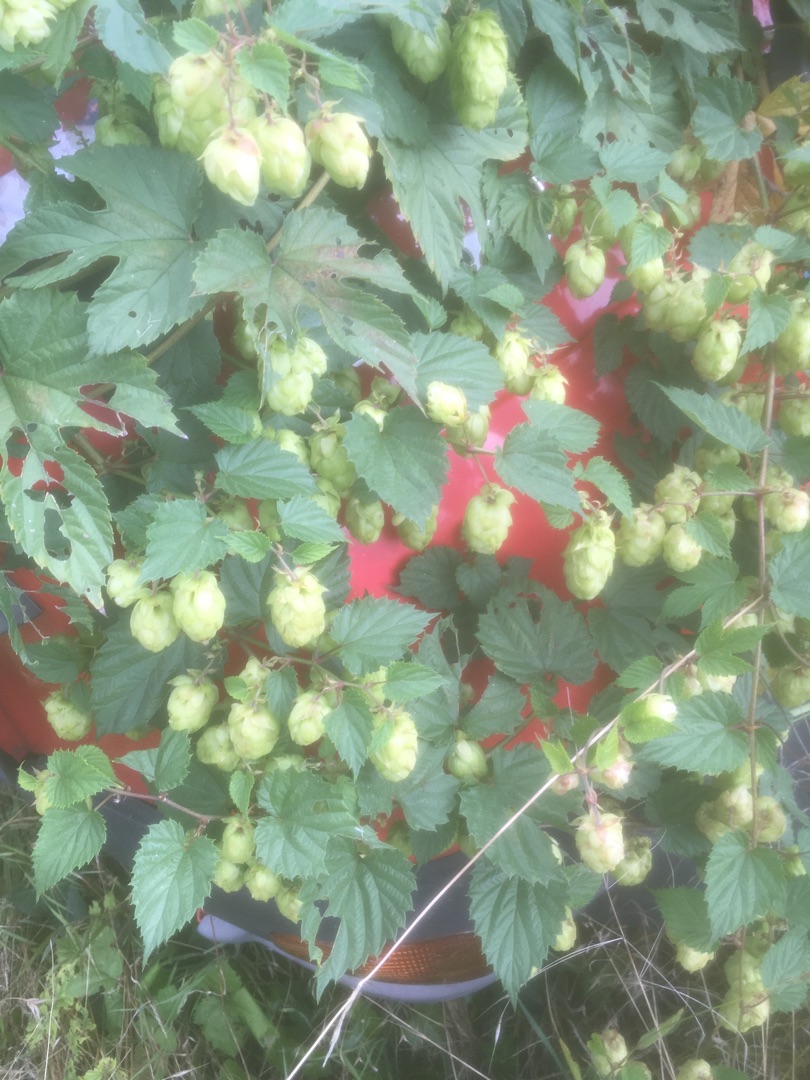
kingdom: Plantae
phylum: Tracheophyta
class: Magnoliopsida
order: Rosales
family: Cannabaceae
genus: Humulus
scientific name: Humulus lupulus
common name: Humle
